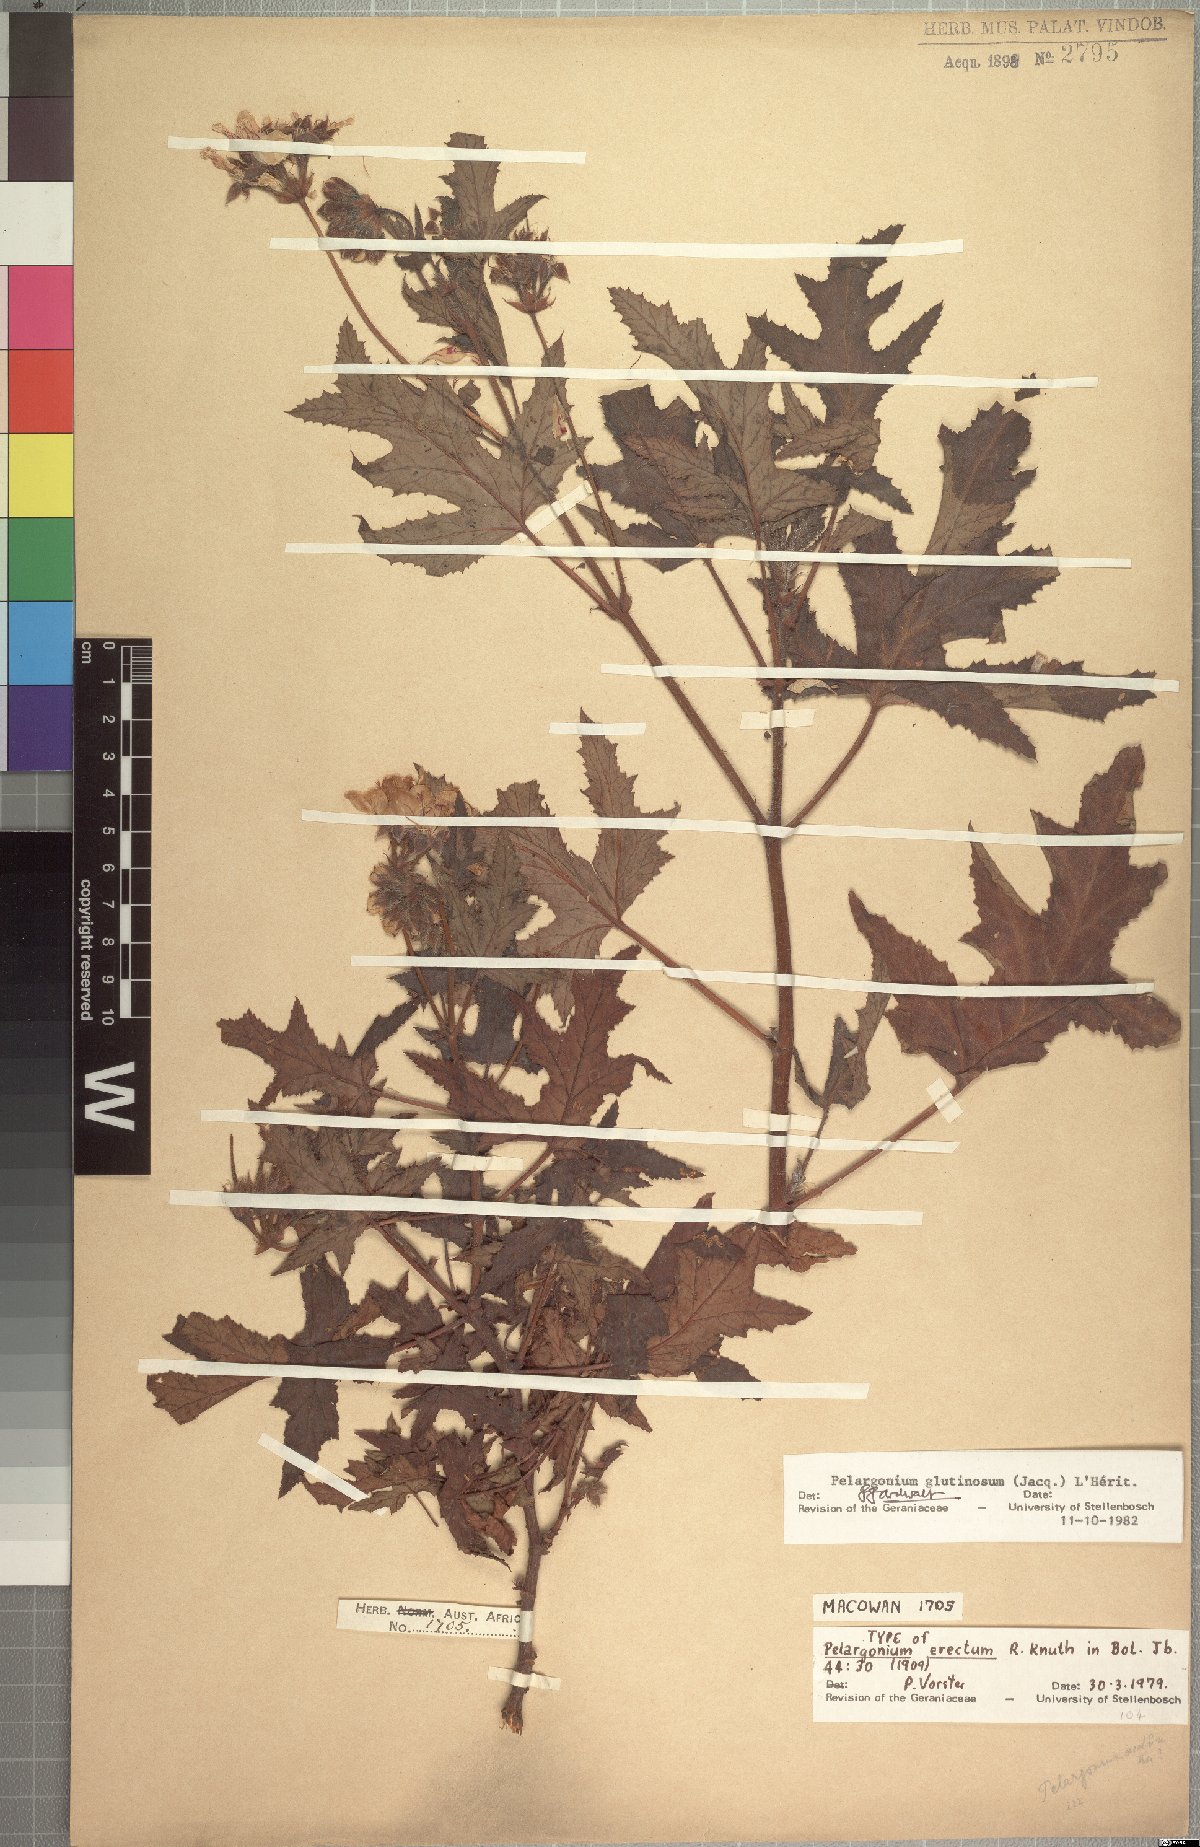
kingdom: Plantae
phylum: Tracheophyta
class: Magnoliopsida
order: Geraniales
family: Geraniaceae
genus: Pelargonium
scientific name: Pelargonium glutinosum
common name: Pheasant-foot geranium
